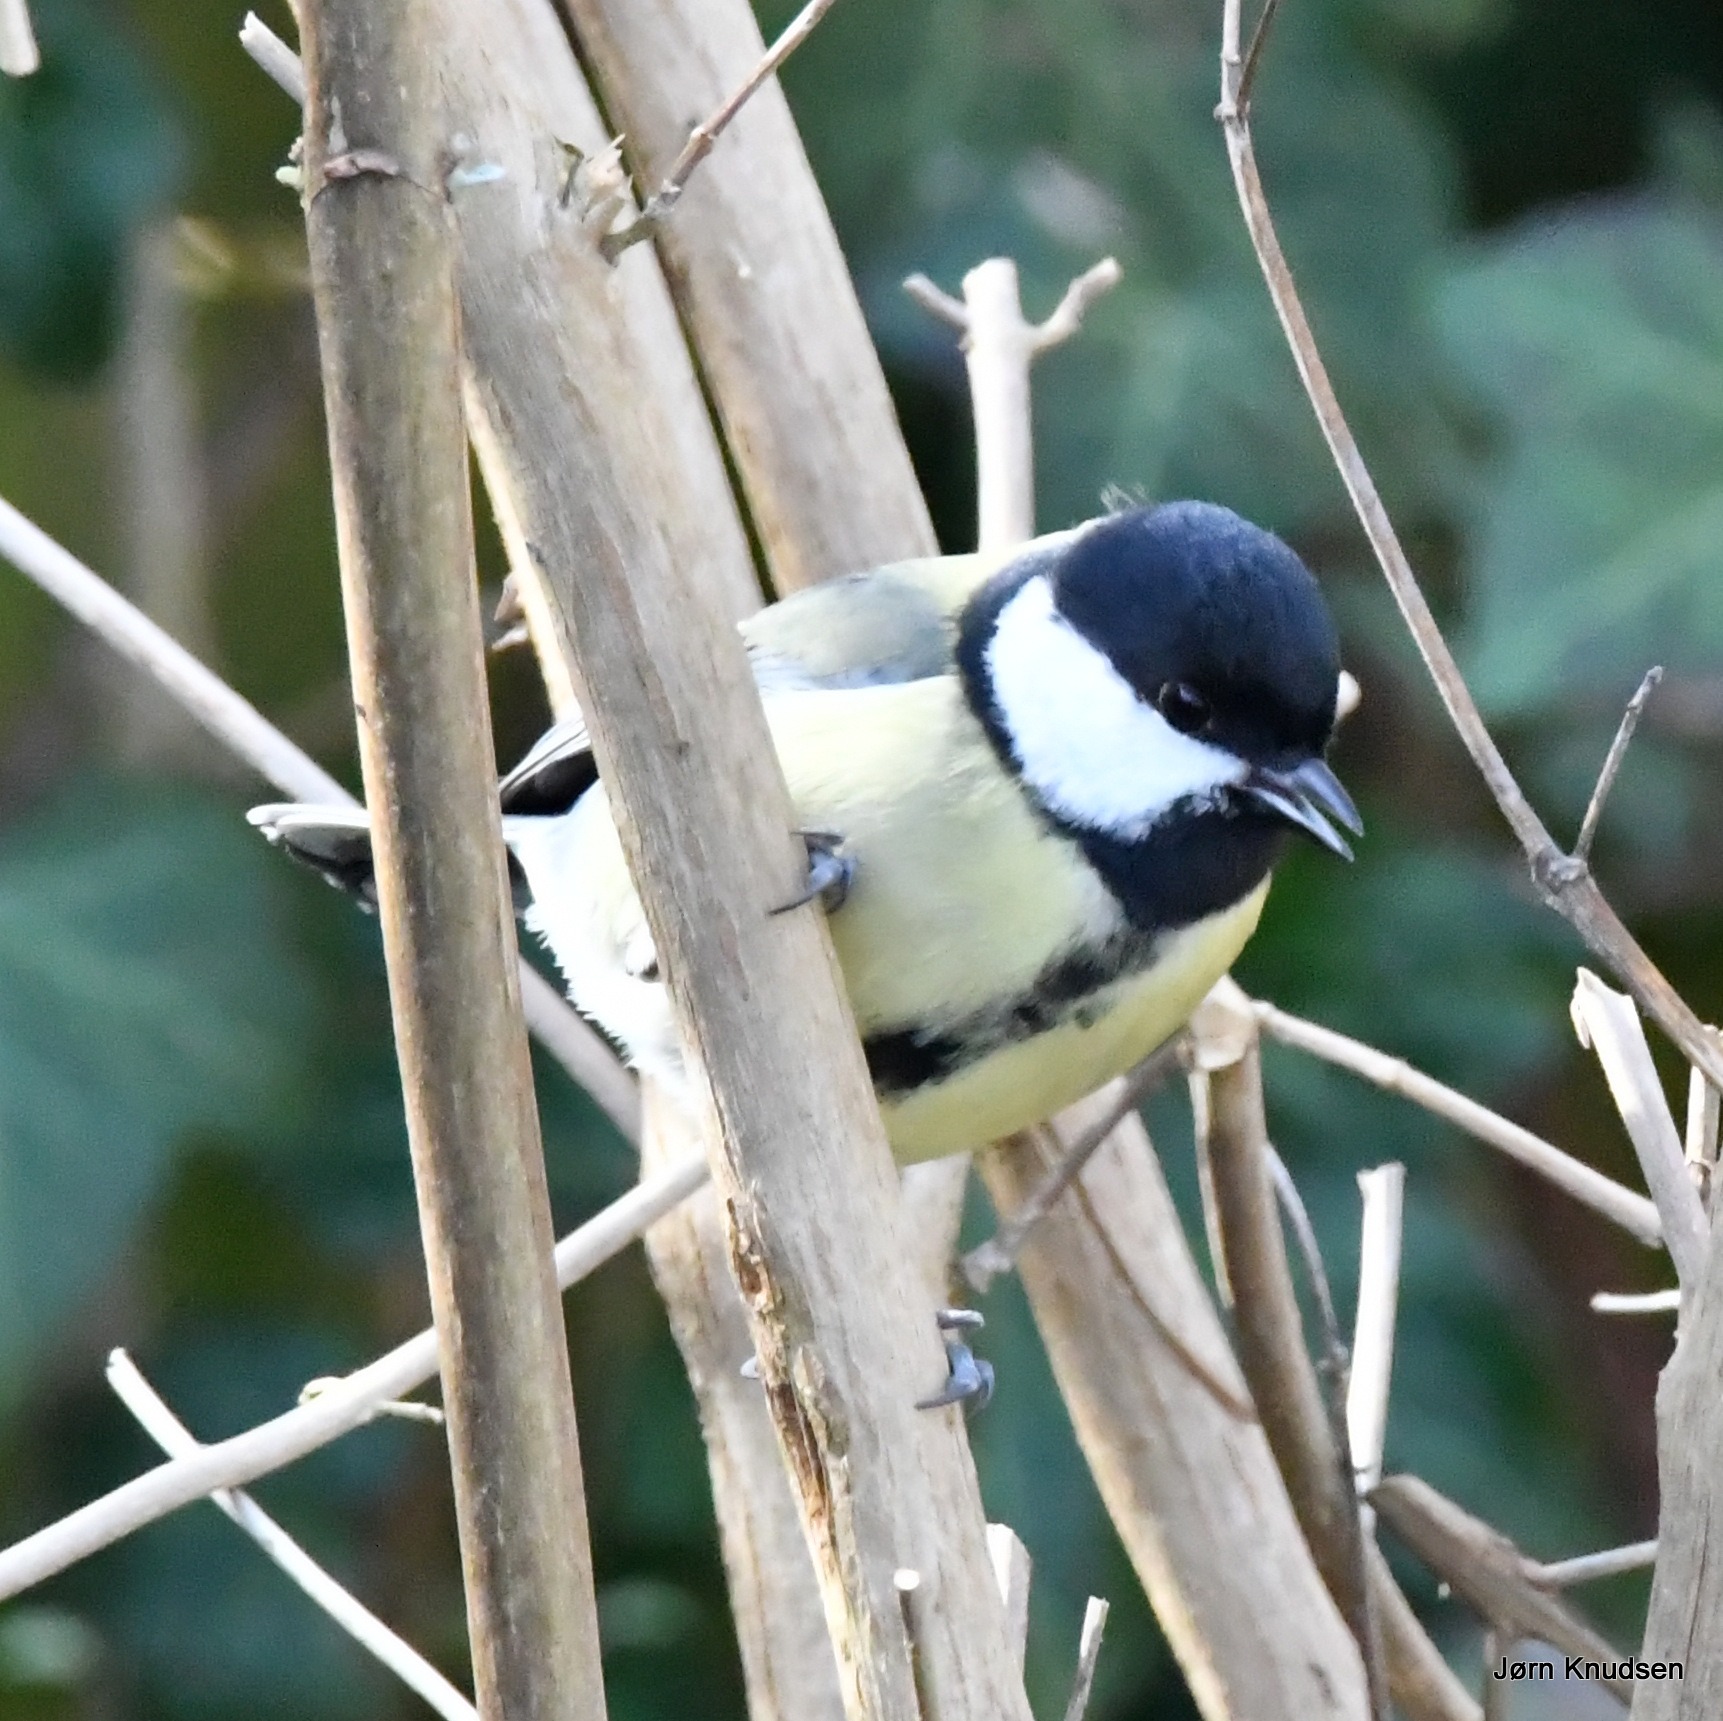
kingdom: Animalia
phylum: Chordata
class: Aves
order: Passeriformes
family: Paridae
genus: Parus
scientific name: Parus major
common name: Musvit
